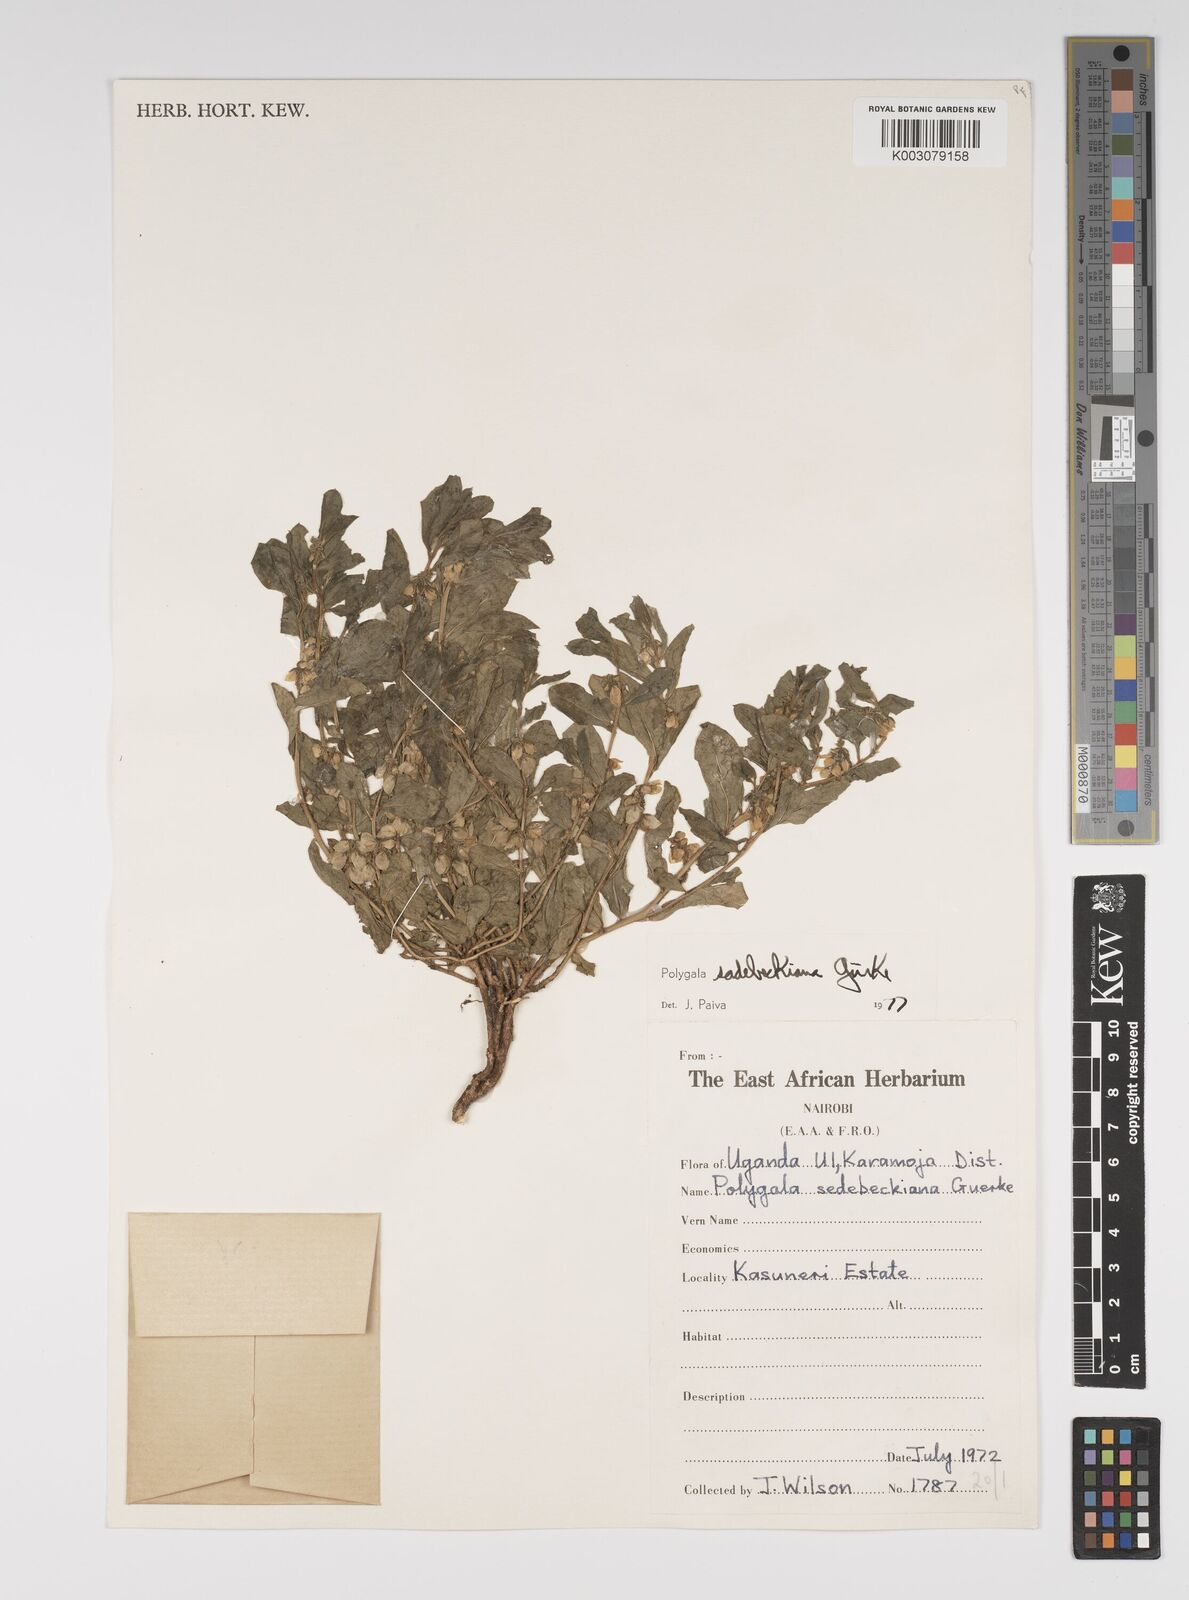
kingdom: Plantae
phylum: Tracheophyta
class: Magnoliopsida
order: Fabales
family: Polygalaceae
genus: Polygala
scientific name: Polygala sadebeckiana
